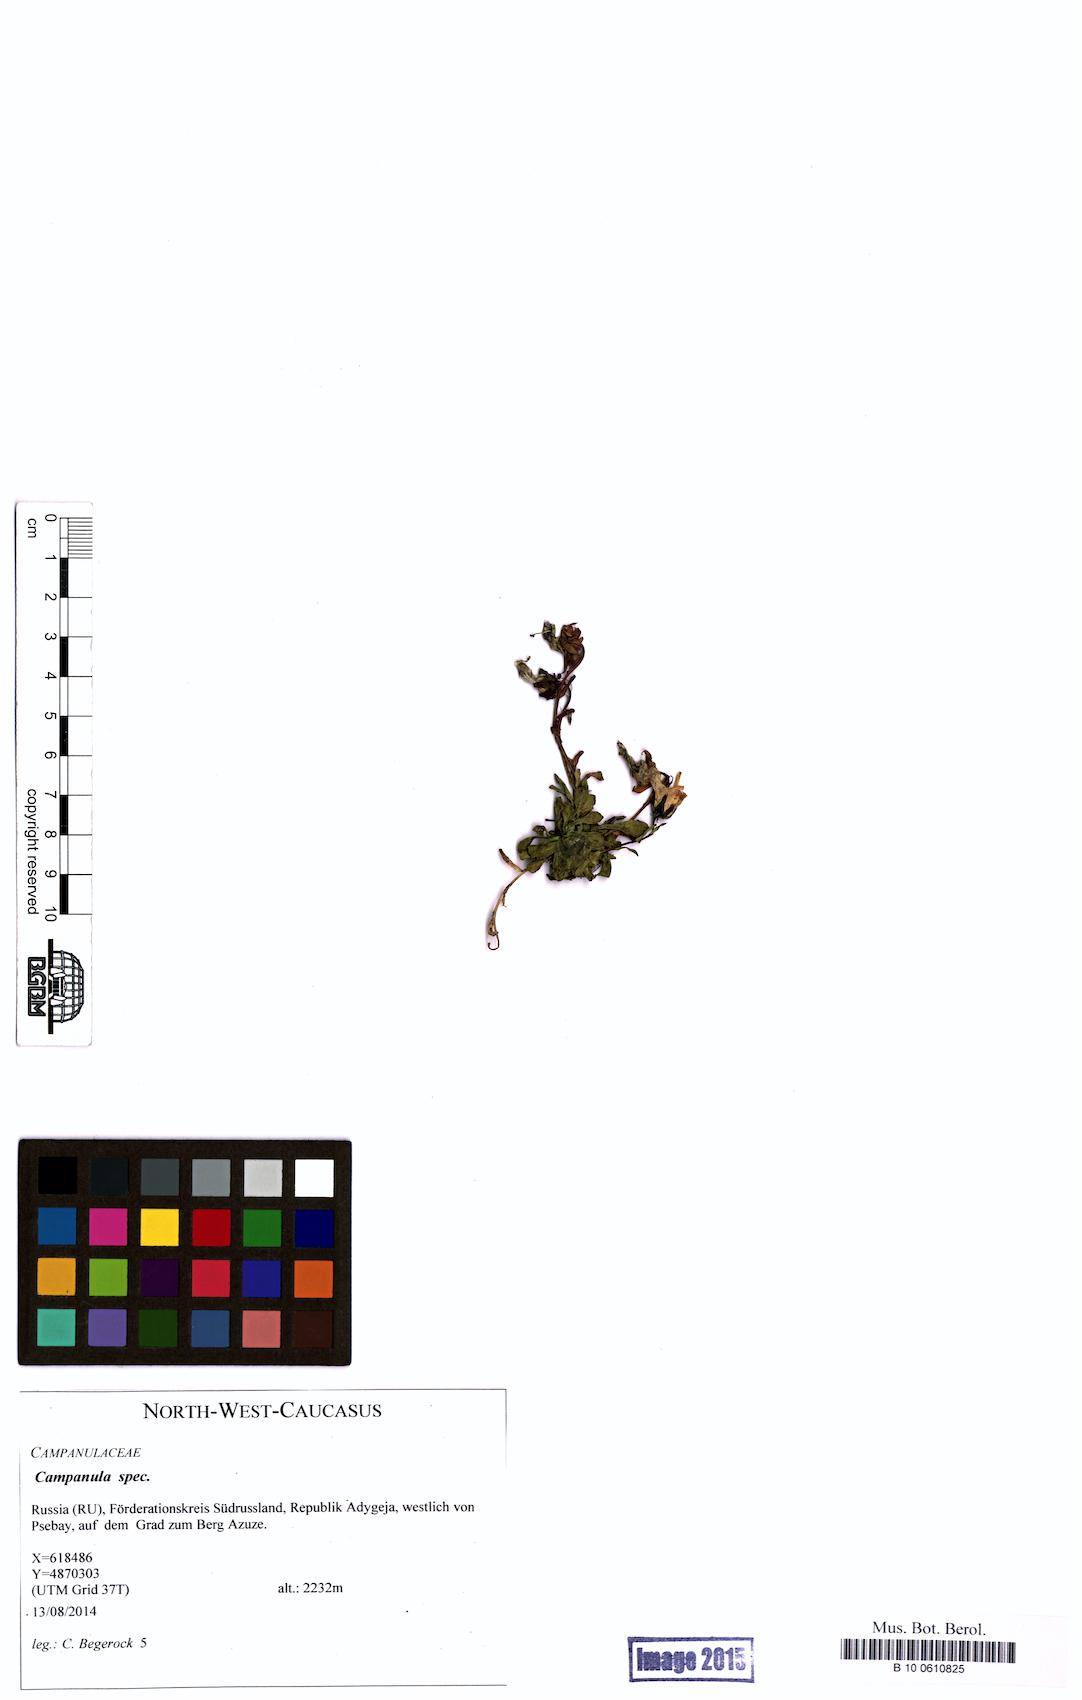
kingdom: Plantae
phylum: Tracheophyta
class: Magnoliopsida
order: Asterales
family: Campanulaceae
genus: Campanula
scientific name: Campanula
